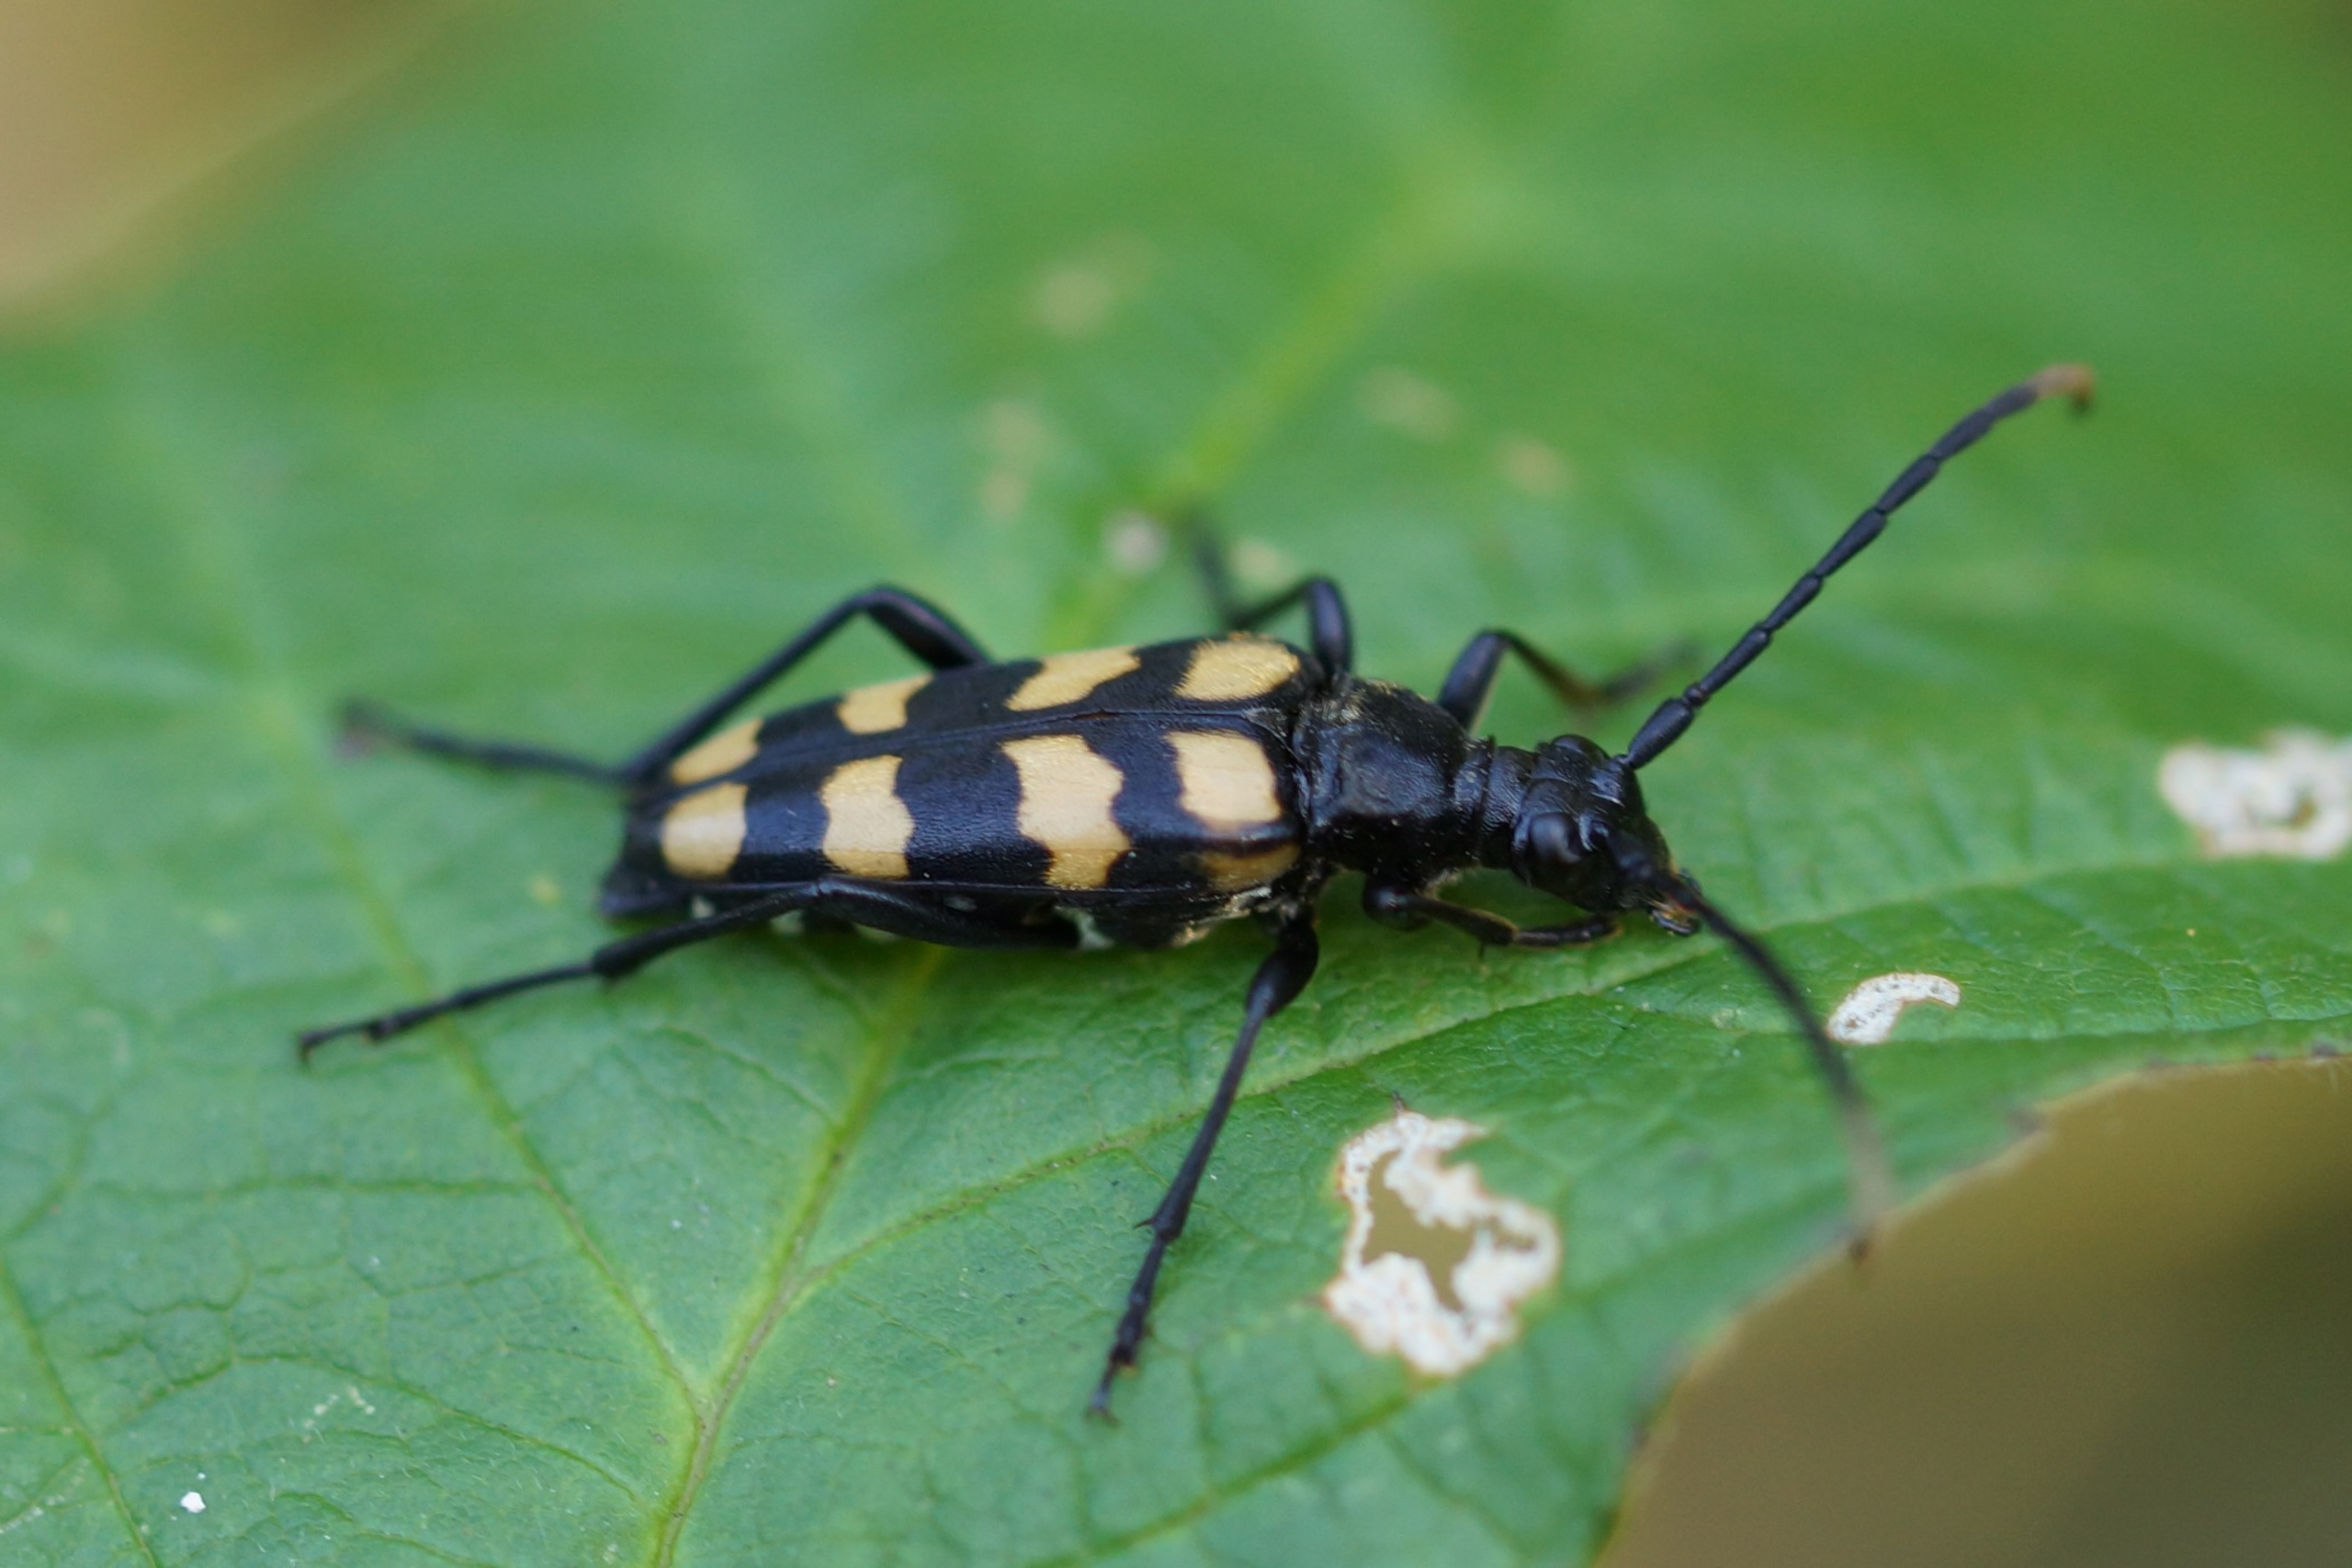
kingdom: Animalia
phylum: Arthropoda
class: Insecta
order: Coleoptera
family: Cerambycidae
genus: Leptura
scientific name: Leptura quadrifasciata
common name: Firebåndet blomsterbuk
